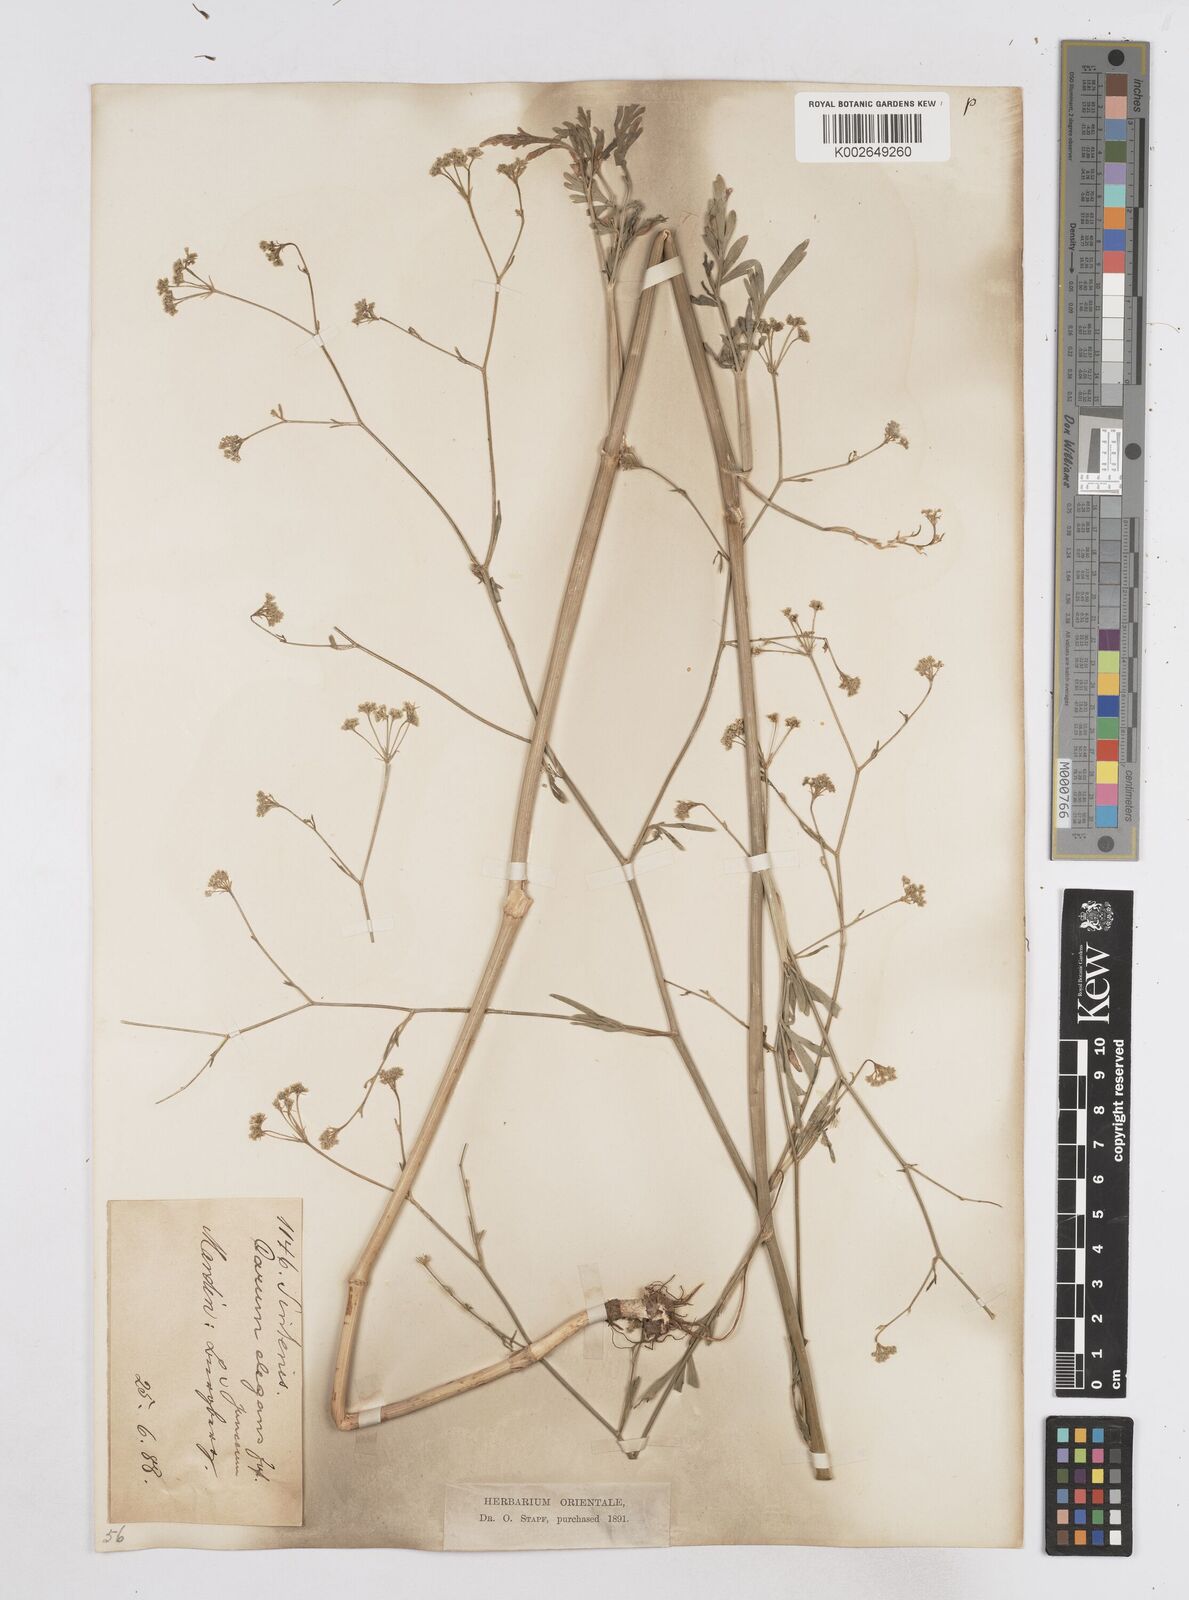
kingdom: Plantae
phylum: Tracheophyta
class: Magnoliopsida
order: Apiales
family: Apiaceae
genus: Bunium
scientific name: Bunium paucifolium
